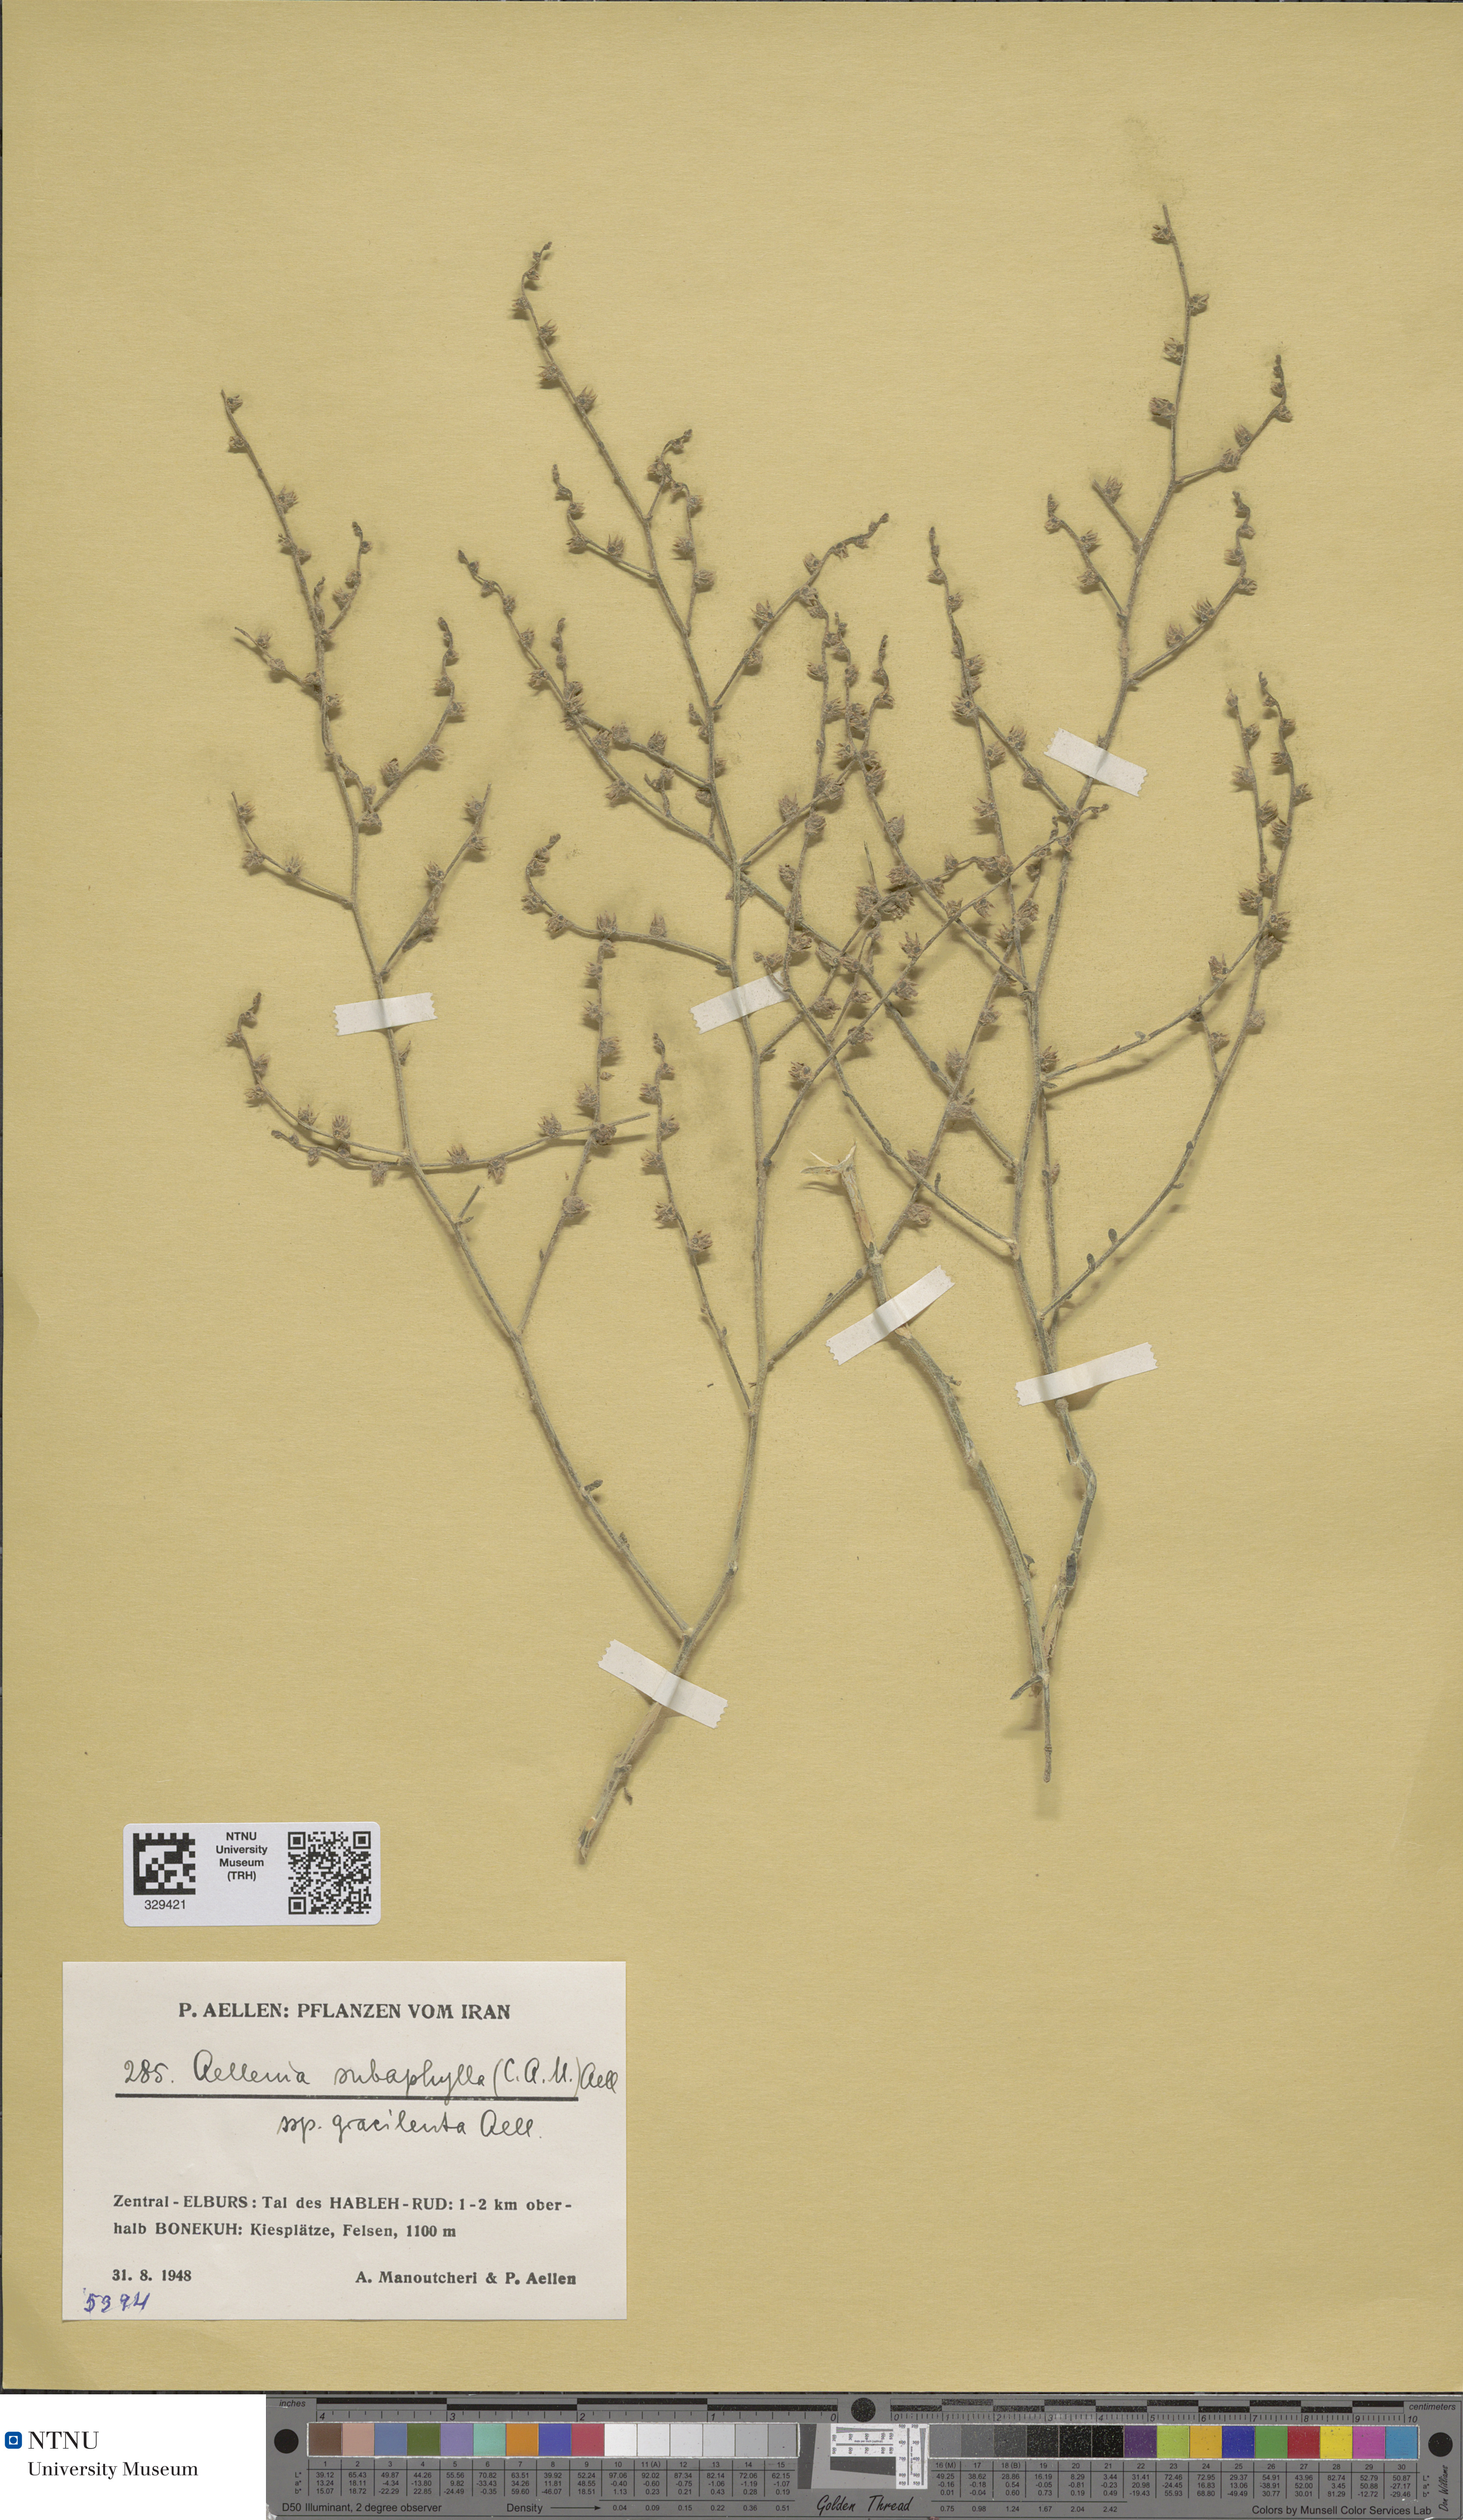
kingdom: Plantae
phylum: Tracheophyta
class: Magnoliopsida
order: Caryophyllales
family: Amaranthaceae
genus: Halothamnus
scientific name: Halothamnus subaphyllus
